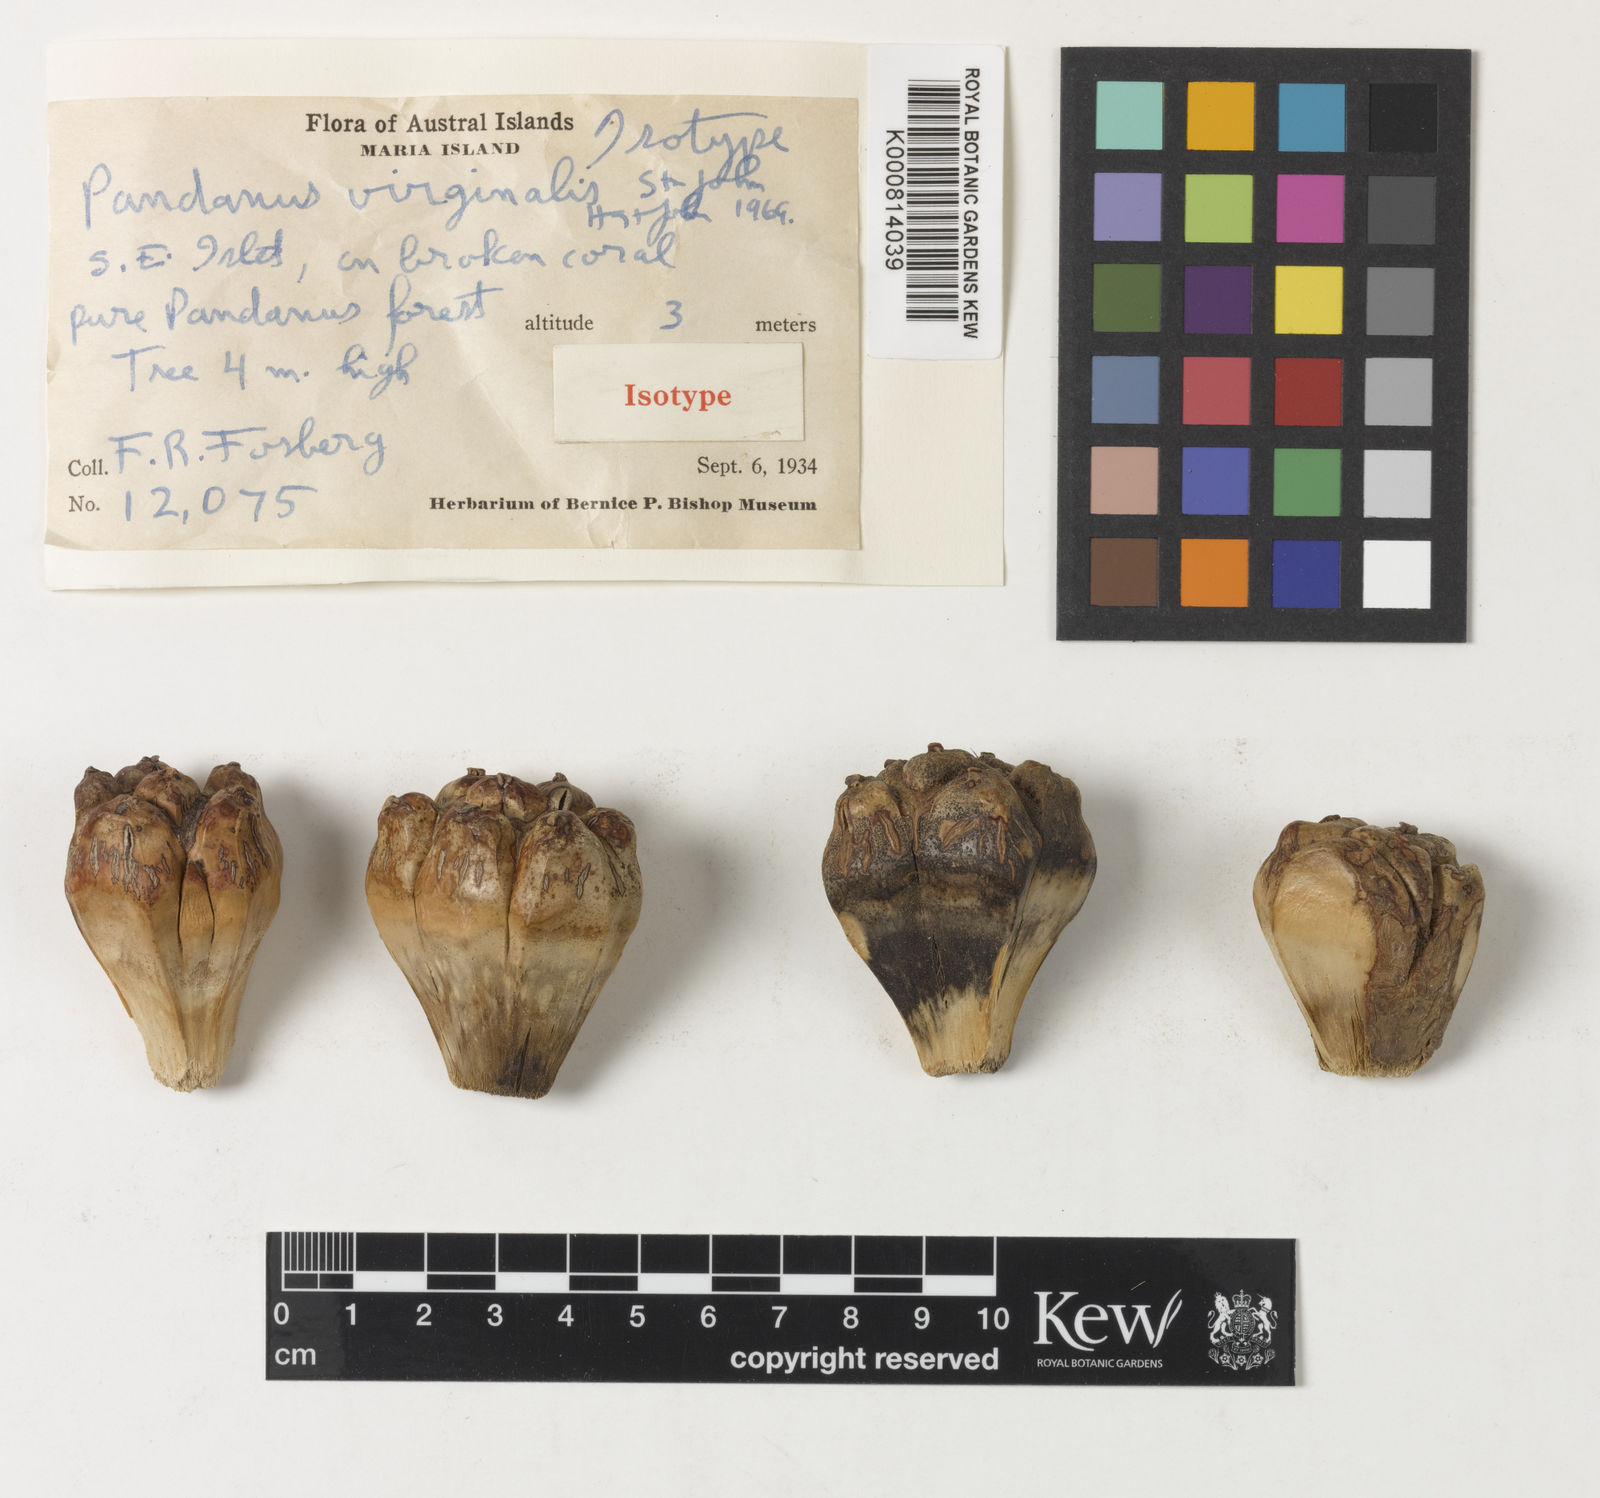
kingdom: Plantae
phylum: Tracheophyta
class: Liliopsida
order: Pandanales
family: Pandanaceae
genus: Pandanus
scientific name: Pandanus
